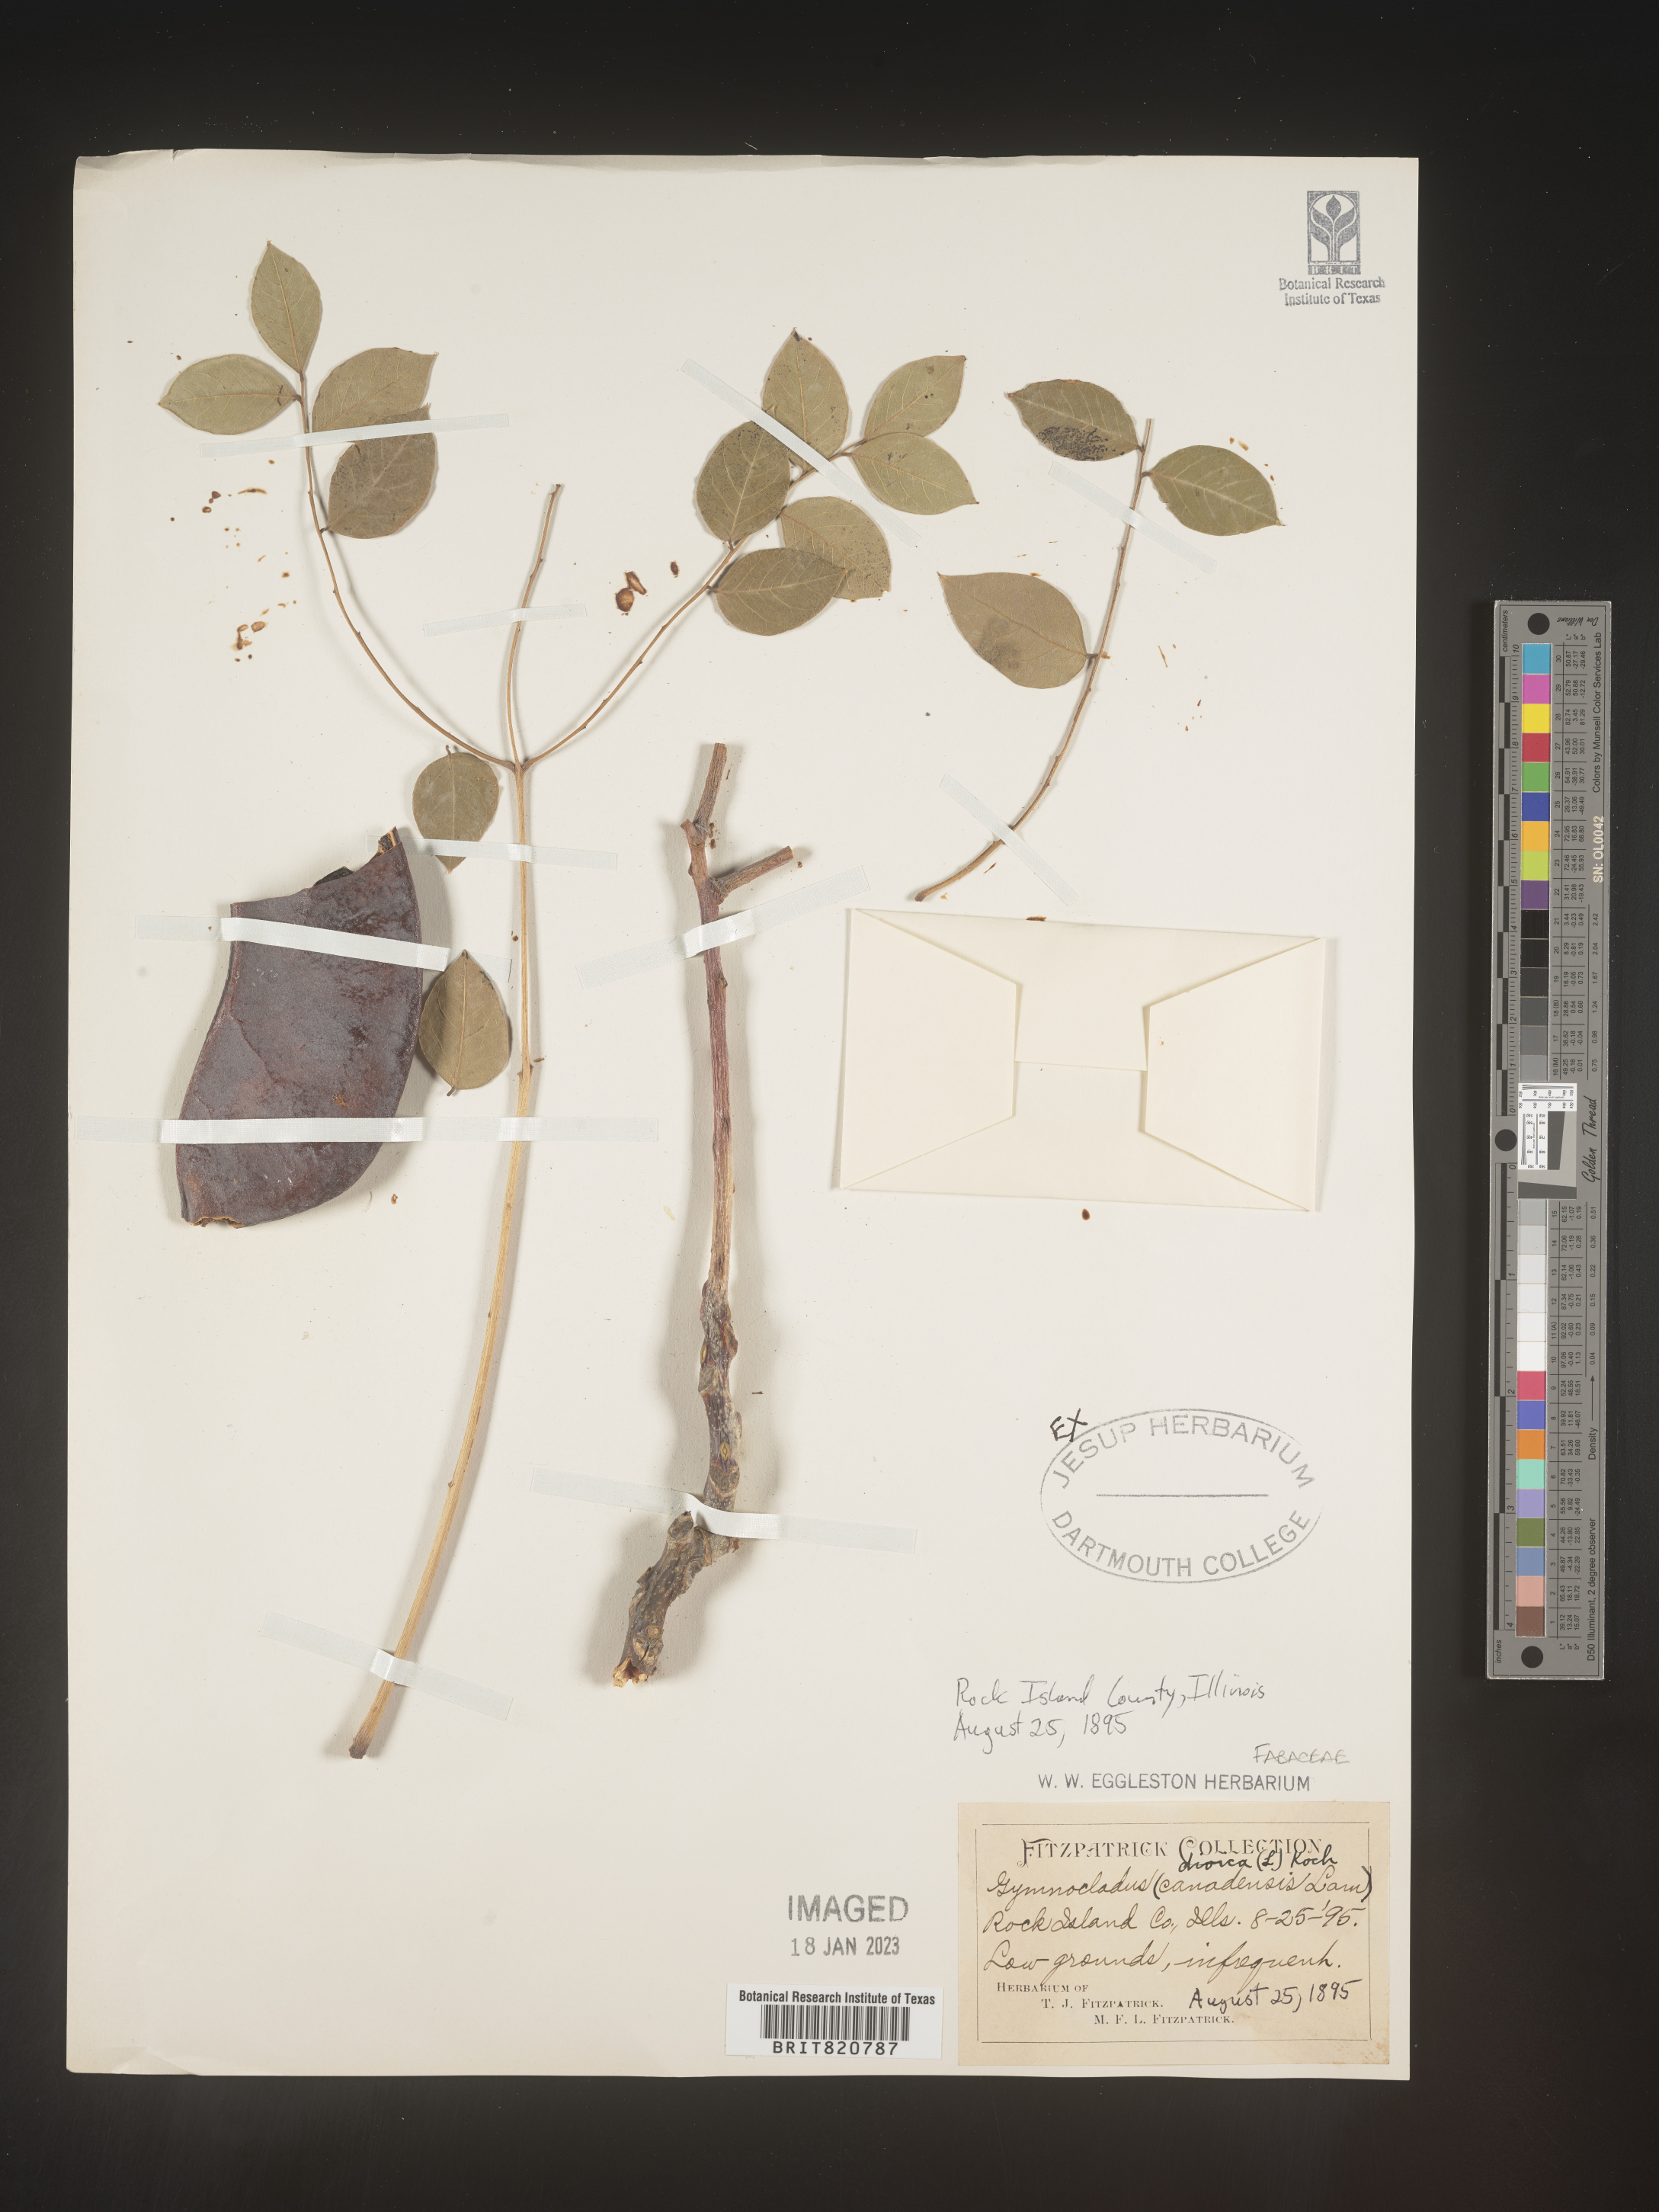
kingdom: Plantae
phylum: Tracheophyta
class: Magnoliopsida
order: Fabales
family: Fabaceae
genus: Gymnocladus
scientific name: Gymnocladus dioicus
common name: Kentucky coffee-tree
